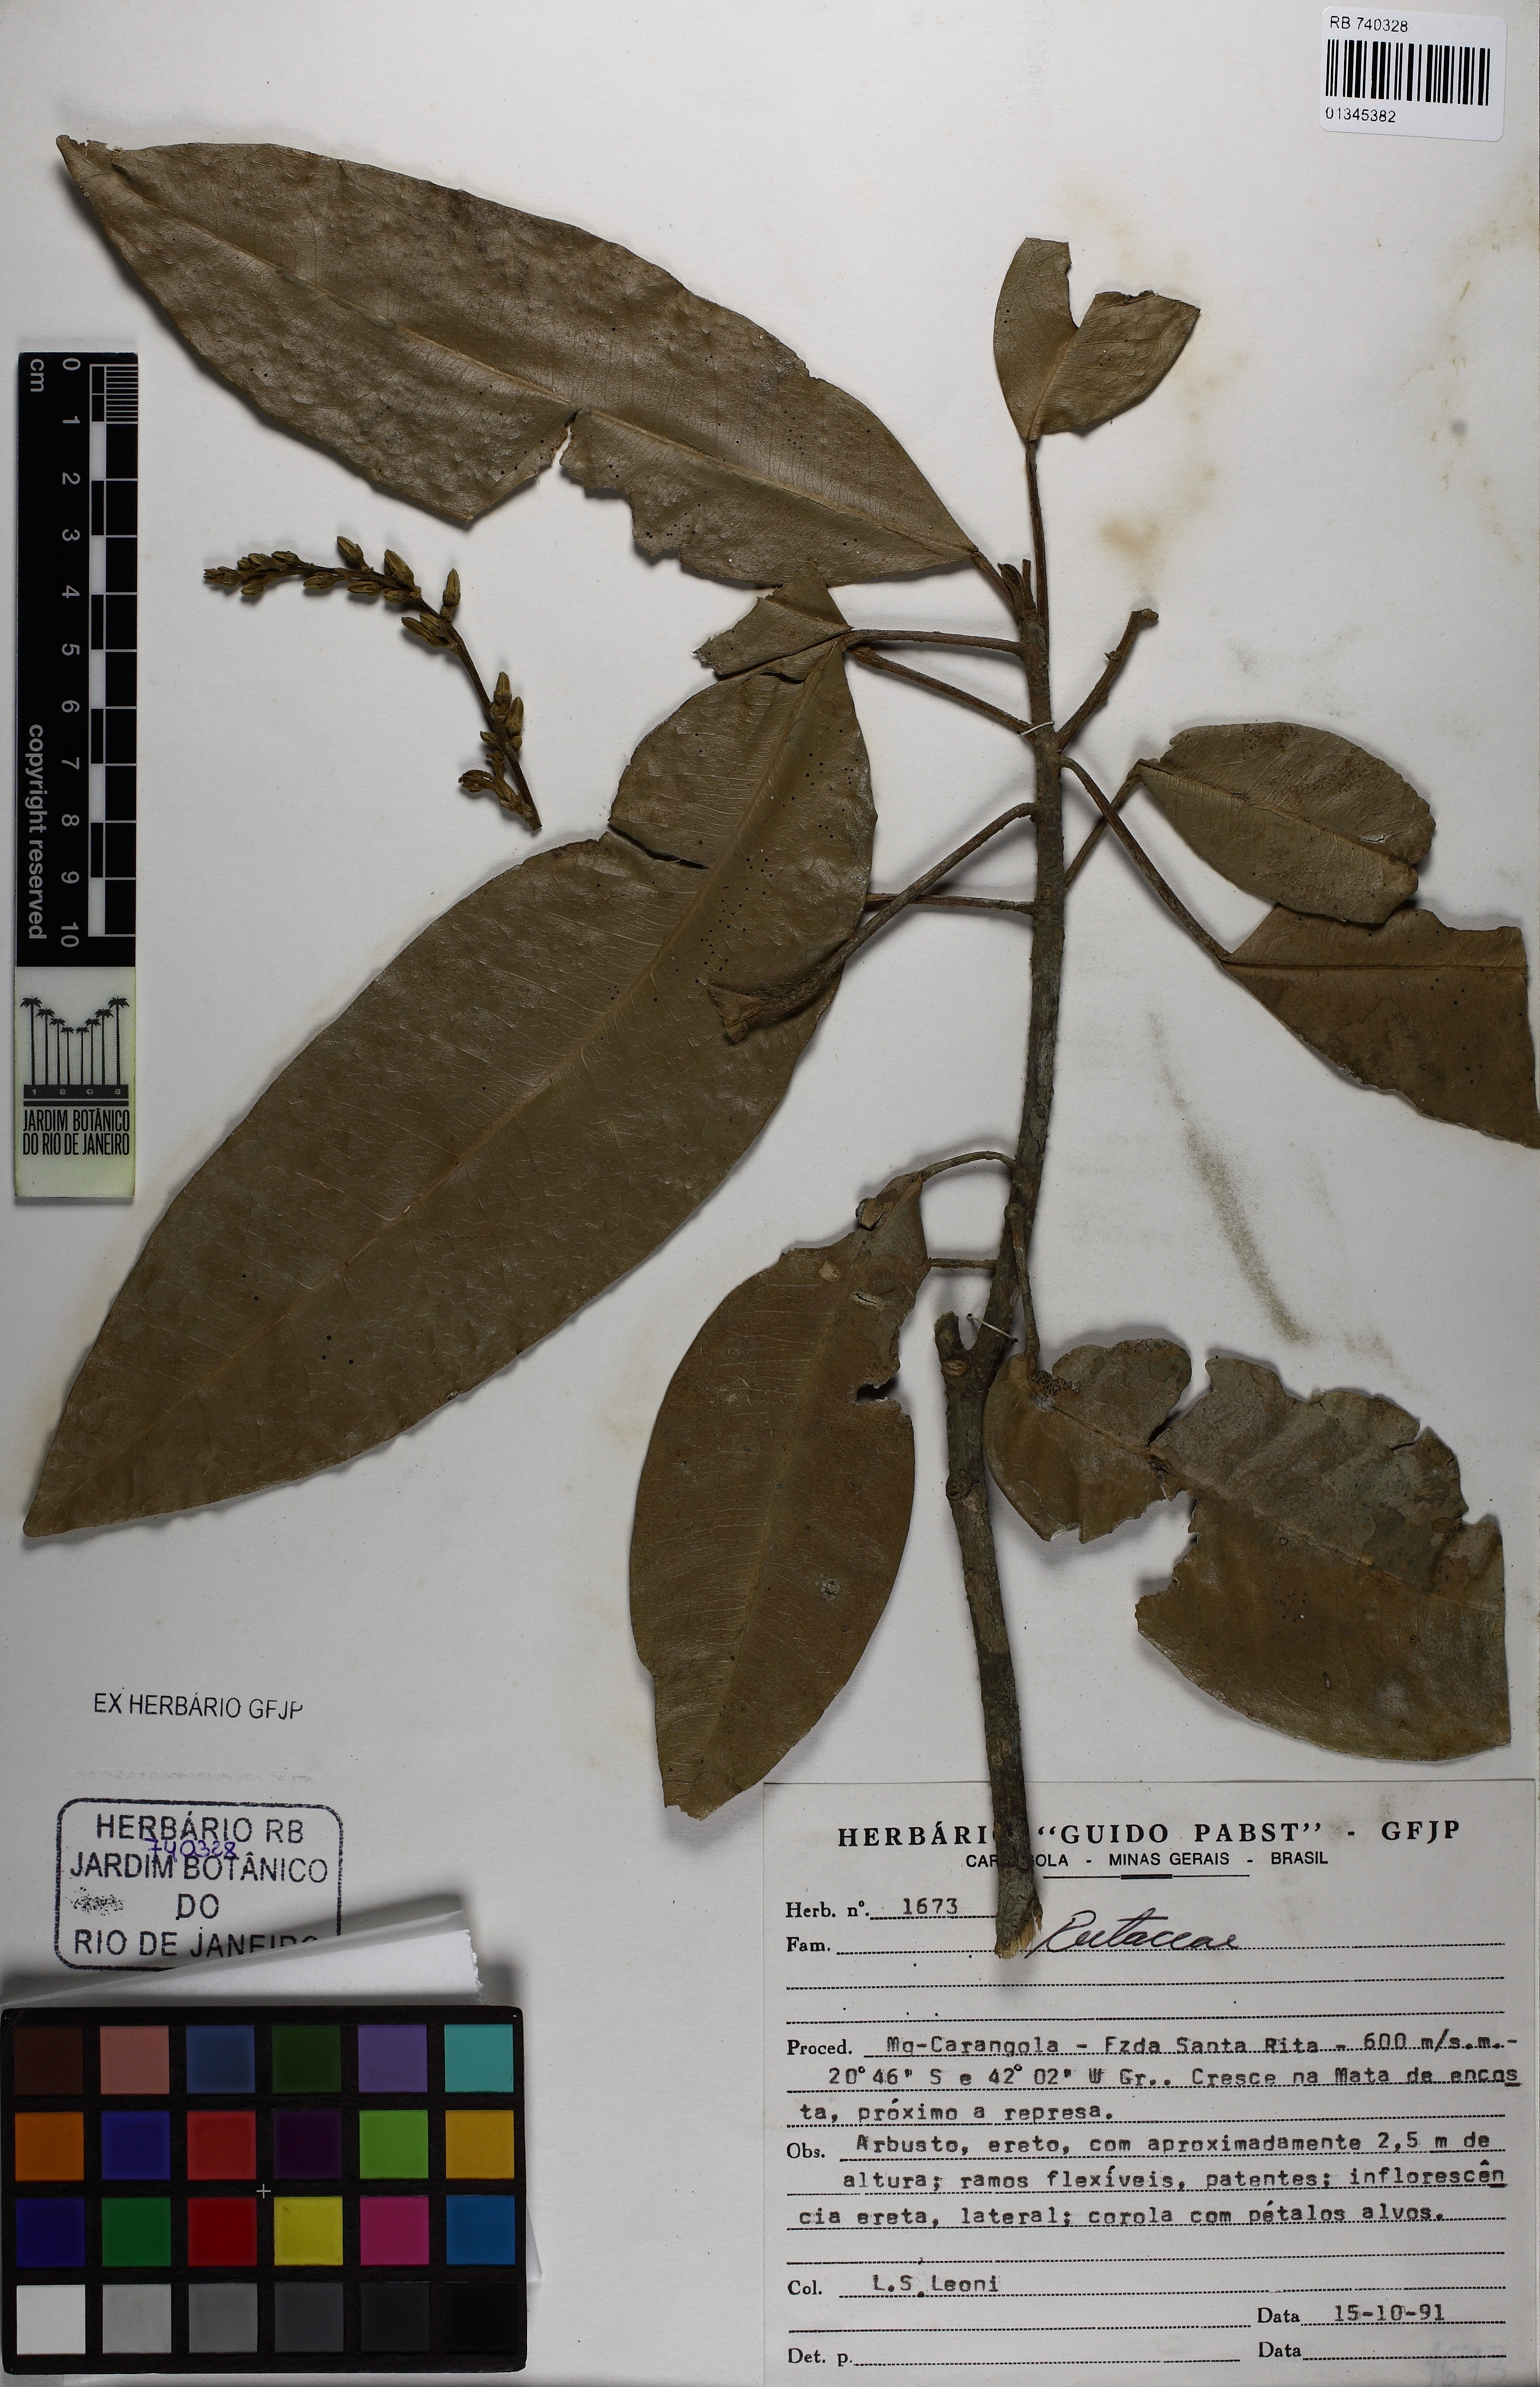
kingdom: Plantae
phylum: Tracheophyta
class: Magnoliopsida
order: Sapindales
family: Rutaceae
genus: Conchocarpus
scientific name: Conchocarpus
